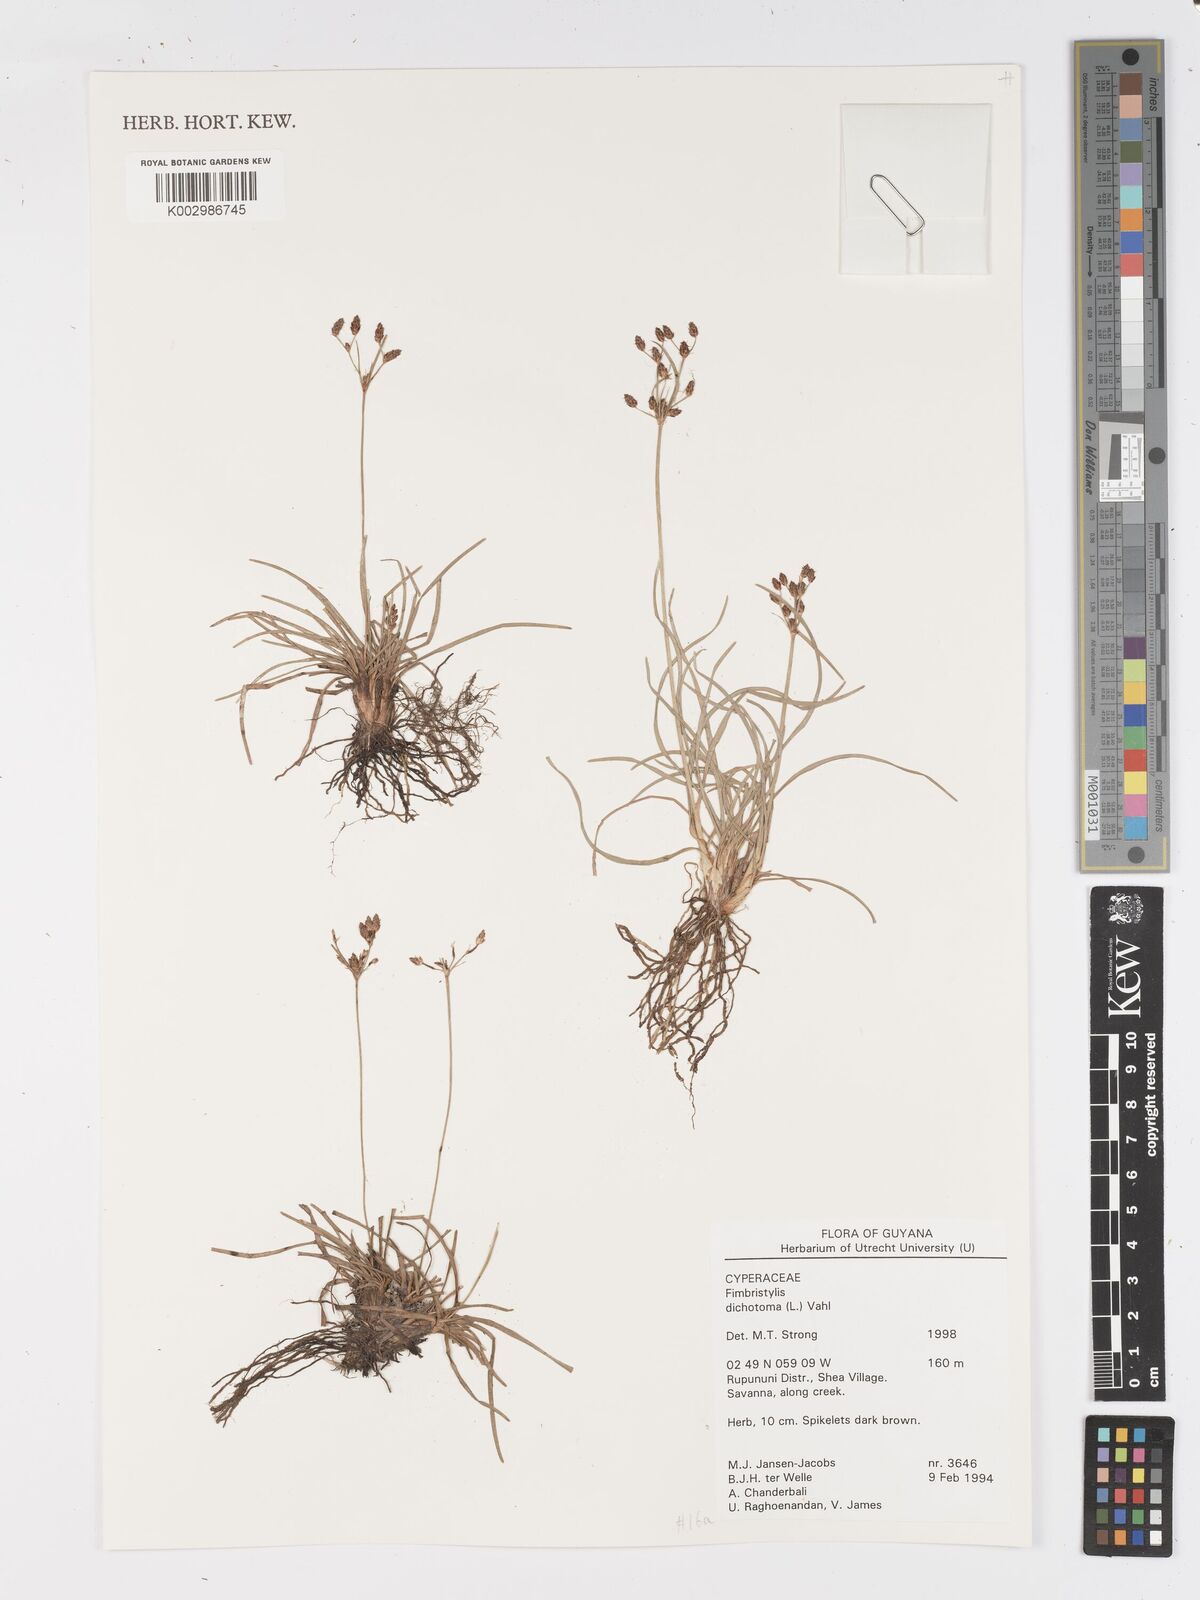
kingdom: Plantae
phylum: Tracheophyta
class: Liliopsida
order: Poales
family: Cyperaceae
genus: Fimbristylis
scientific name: Fimbristylis dichotoma
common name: Forked fimbry
